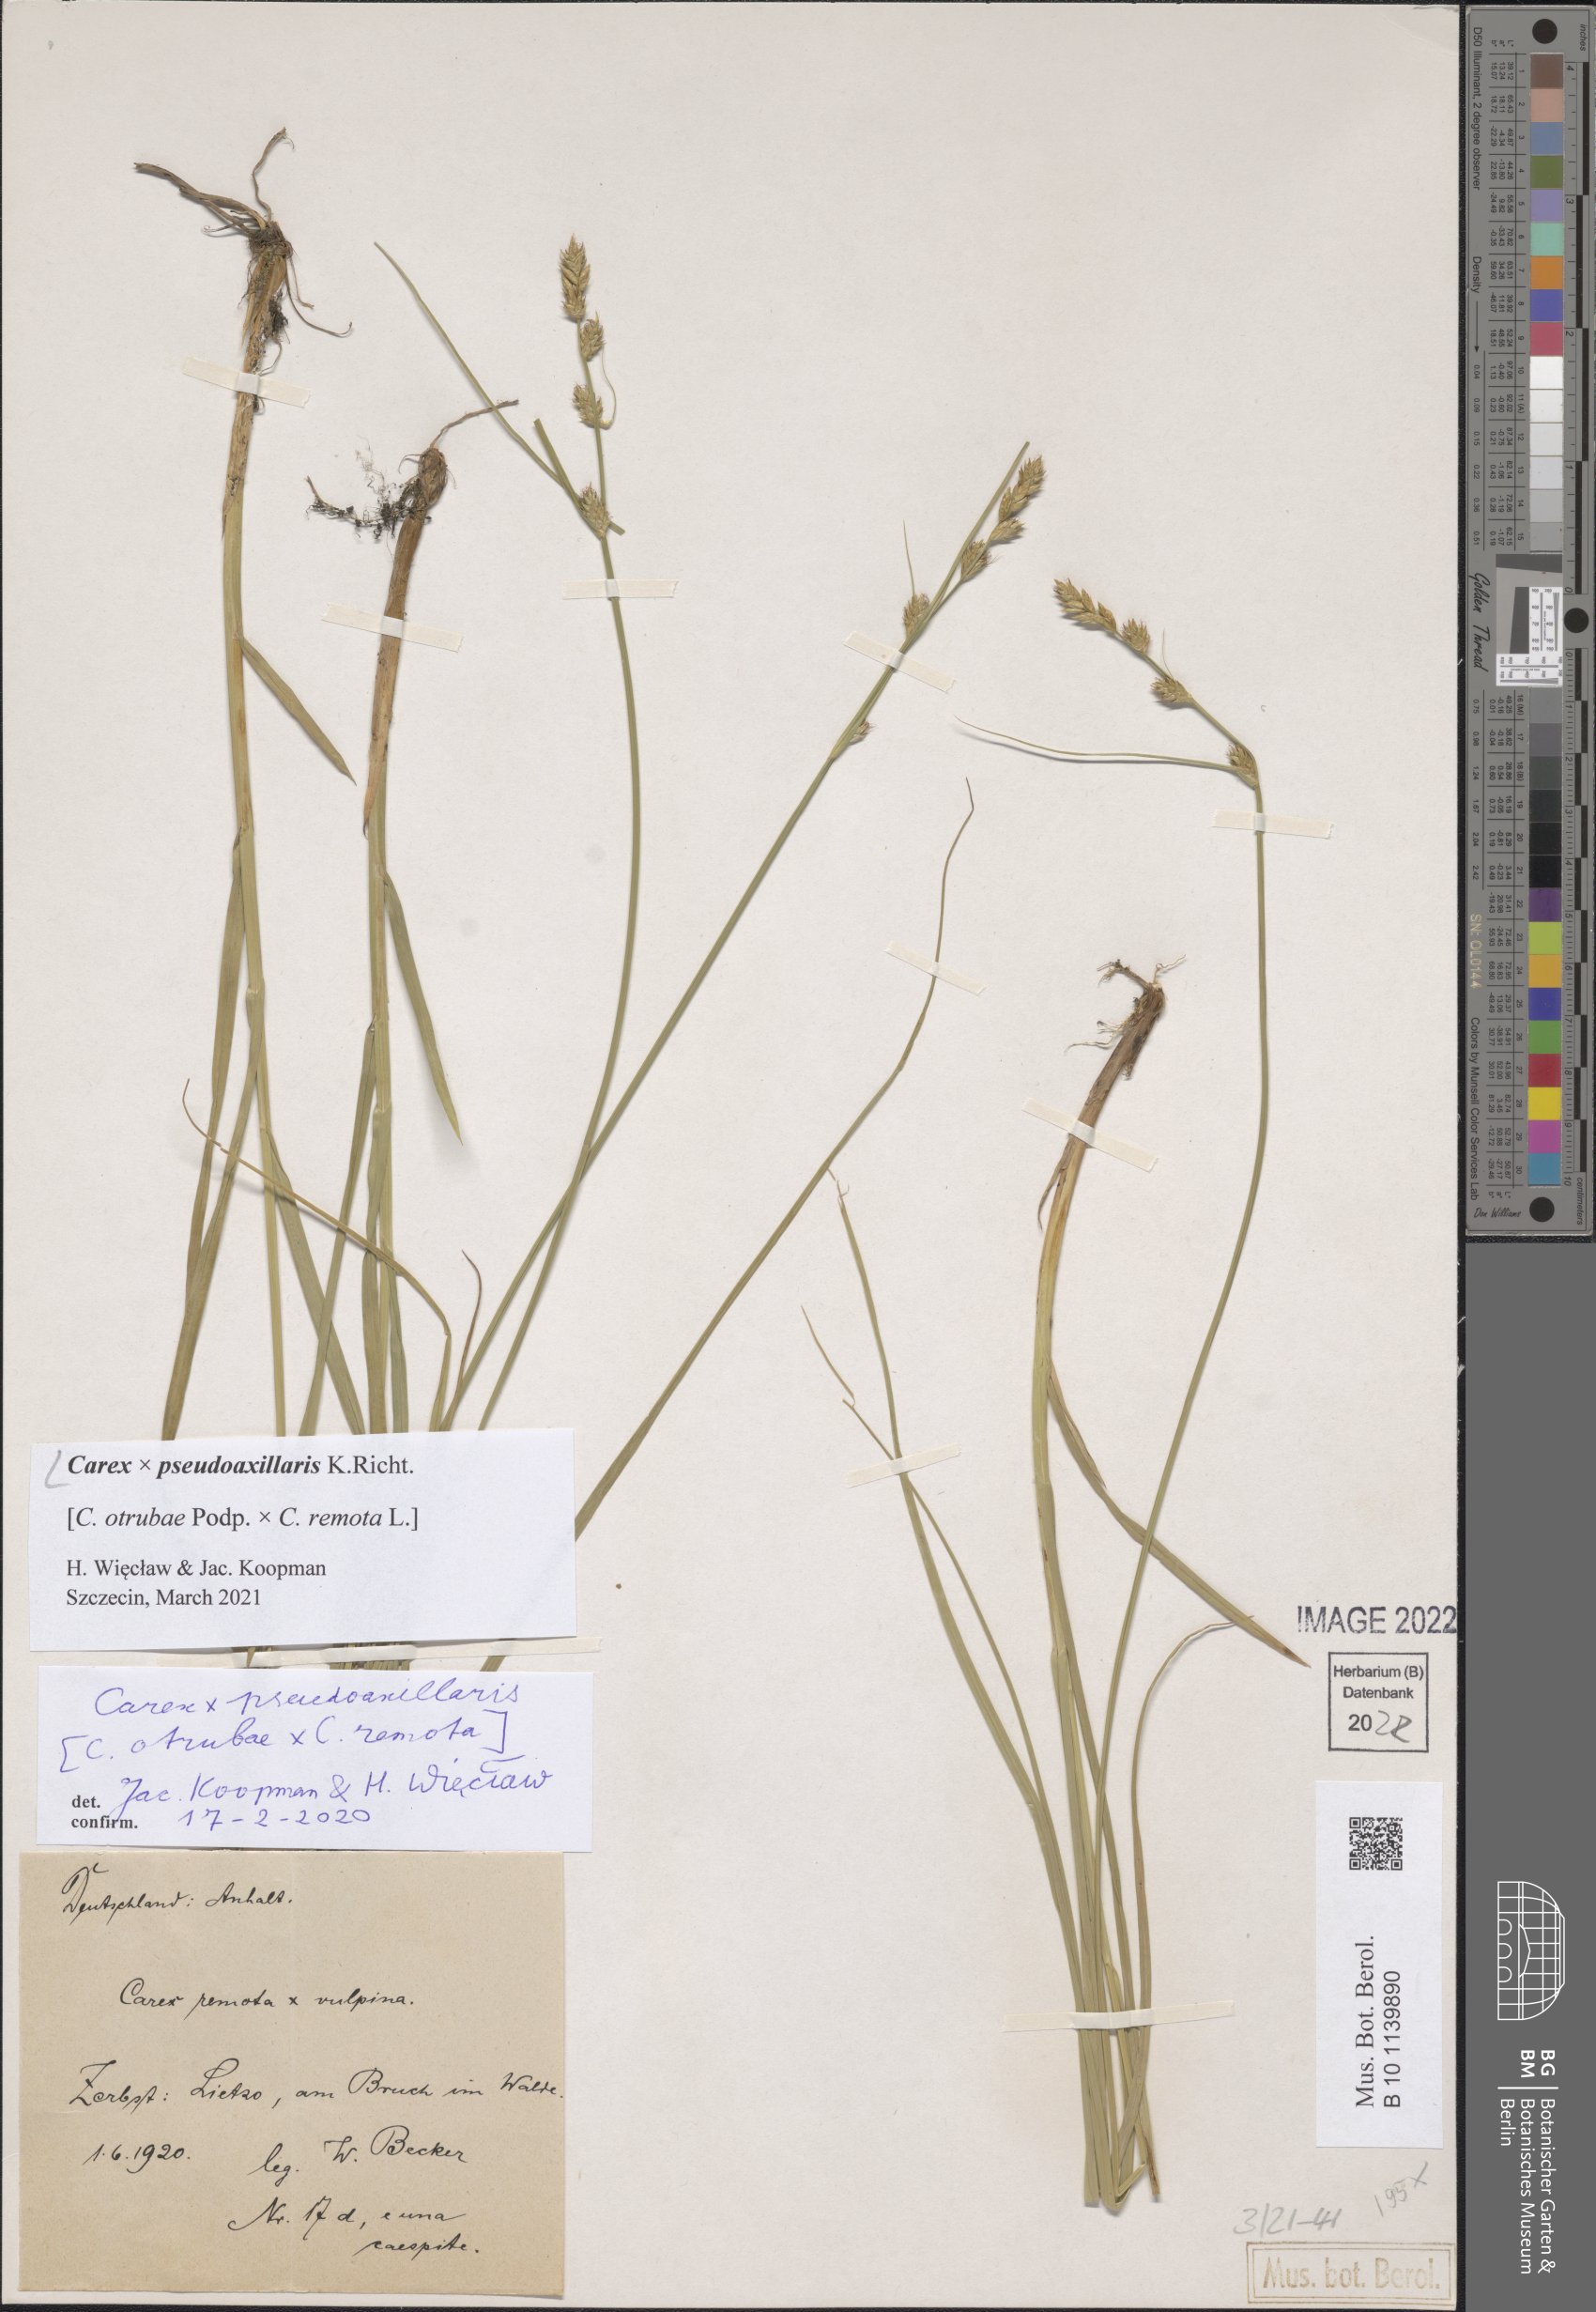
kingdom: Plantae
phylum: Tracheophyta
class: Liliopsida
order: Poales
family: Cyperaceae
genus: Carex
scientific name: Carex pseudoaxillaris
